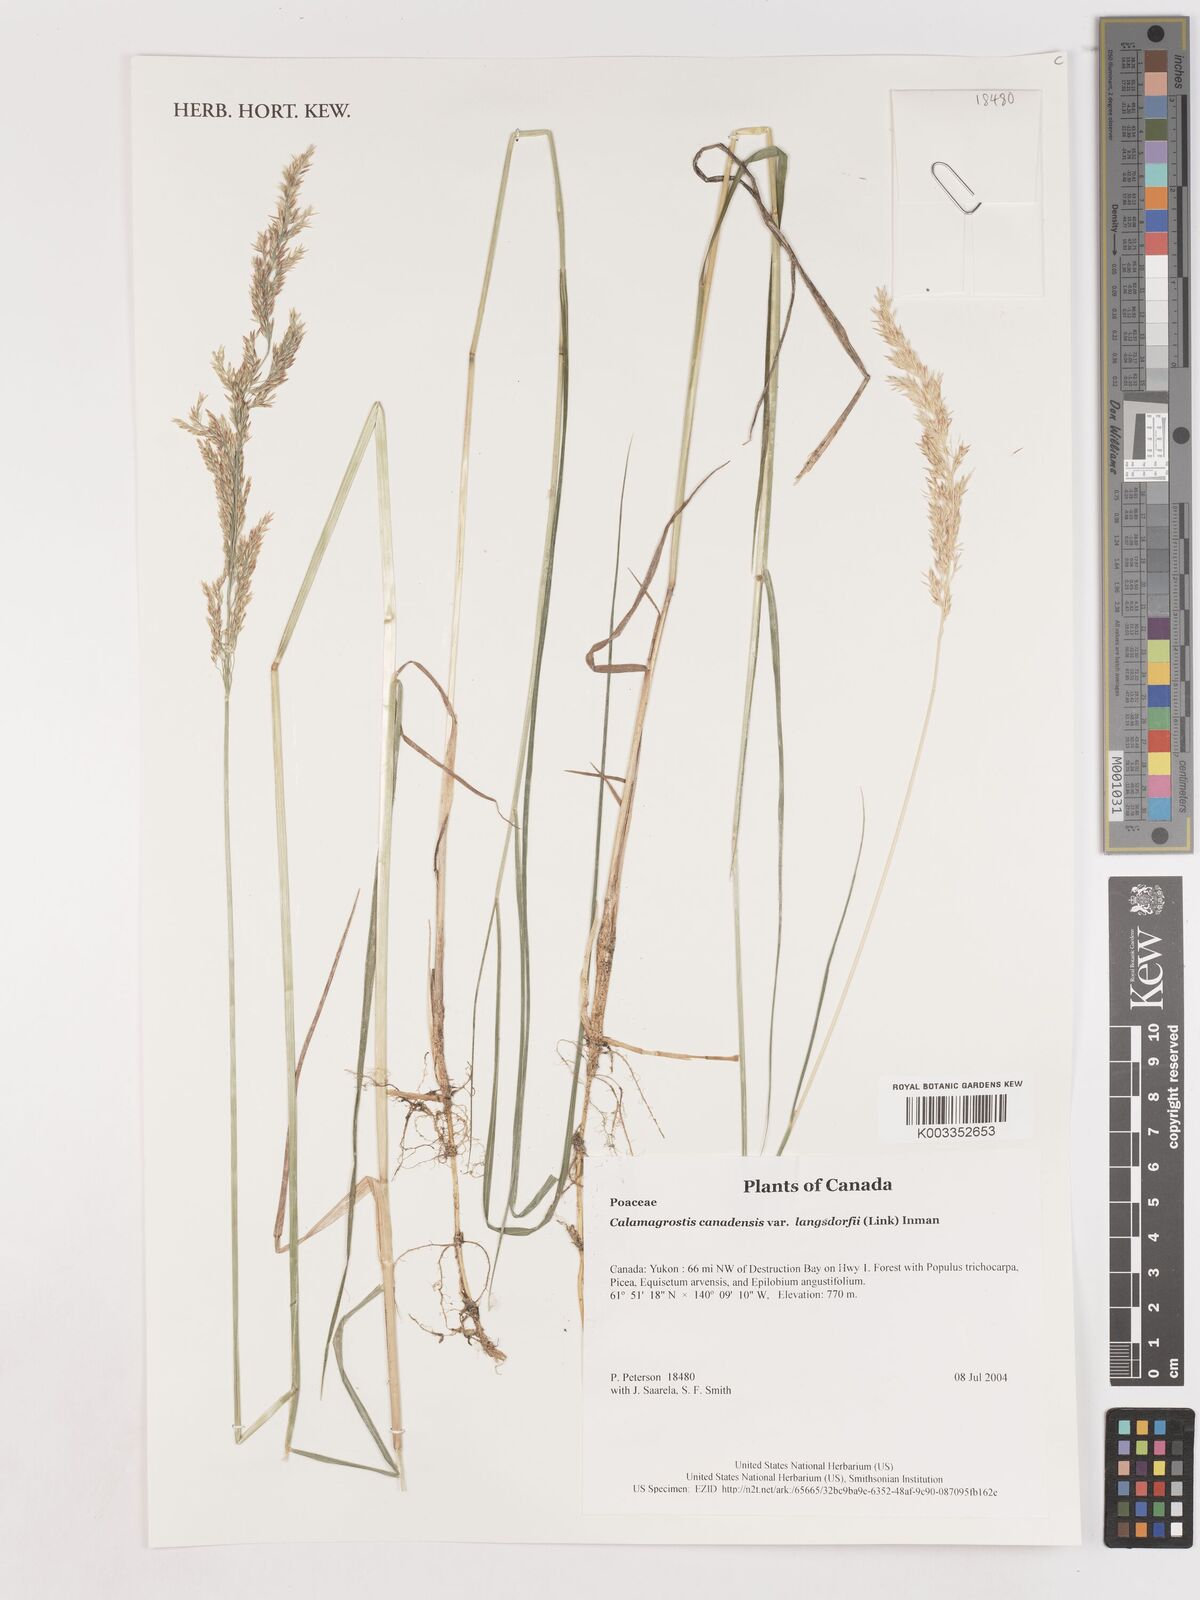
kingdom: Plantae
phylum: Tracheophyta
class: Liliopsida
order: Poales
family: Poaceae
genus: Calamagrostis
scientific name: Calamagrostis canadensis
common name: Canada bluejoint
